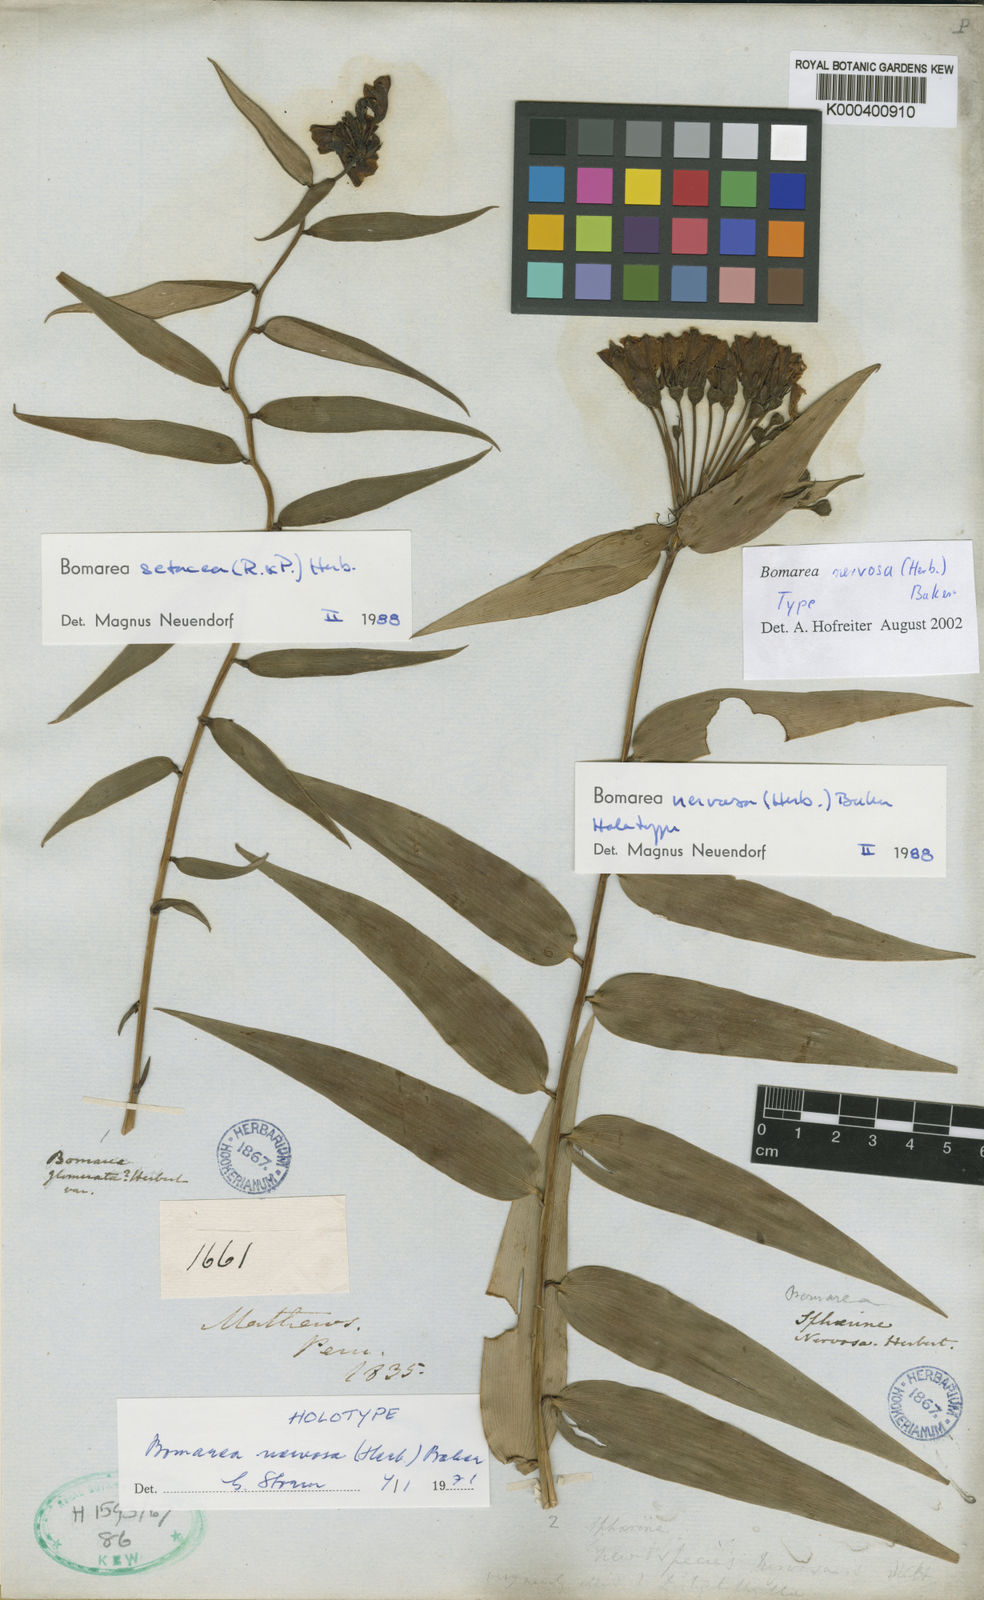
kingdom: Plantae
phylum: Tracheophyta
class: Liliopsida
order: Liliales
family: Alstroemeriaceae
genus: Bomarea
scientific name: Bomarea nervosa
